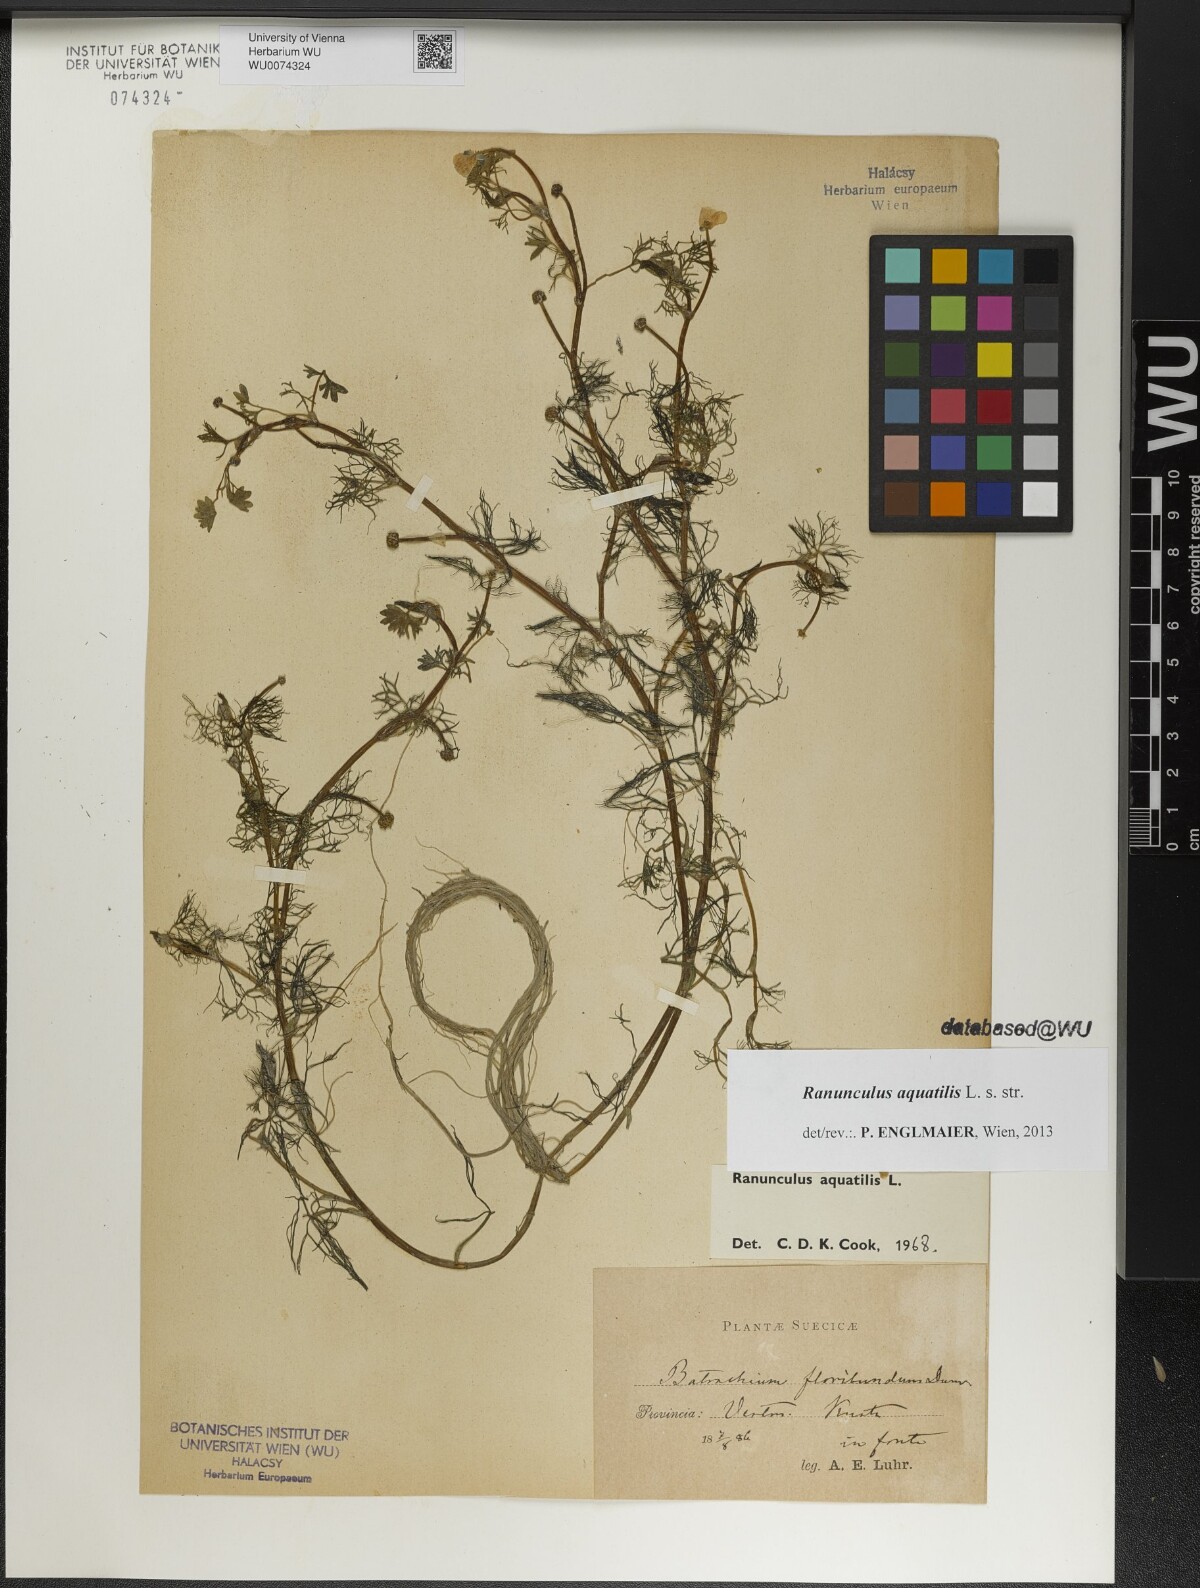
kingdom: Plantae
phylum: Tracheophyta
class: Magnoliopsida
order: Ranunculales
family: Ranunculaceae
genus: Ranunculus
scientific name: Ranunculus aquatilis
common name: Common water-crowfoot
